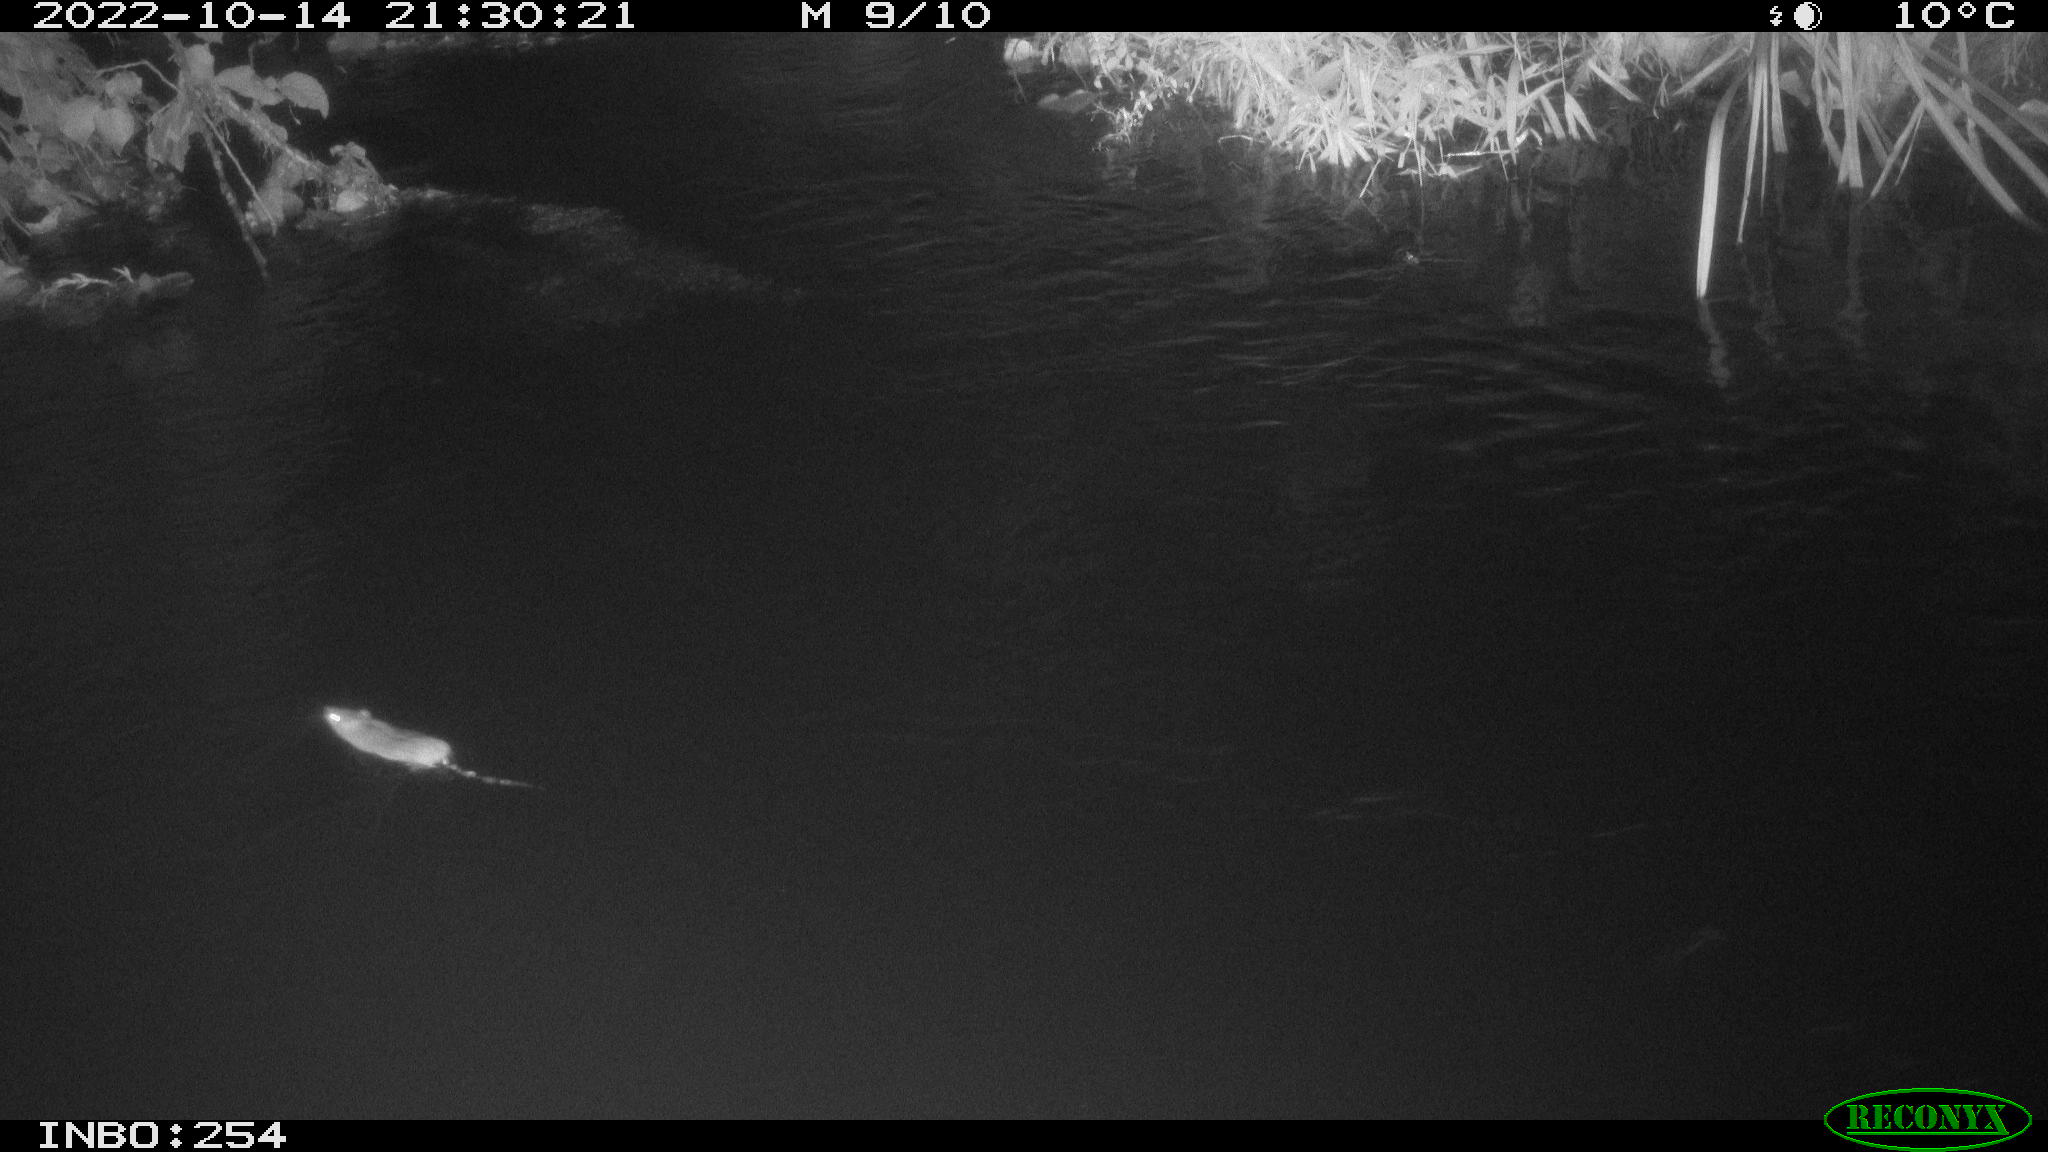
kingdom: Animalia
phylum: Chordata
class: Mammalia
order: Rodentia
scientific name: Rodentia
